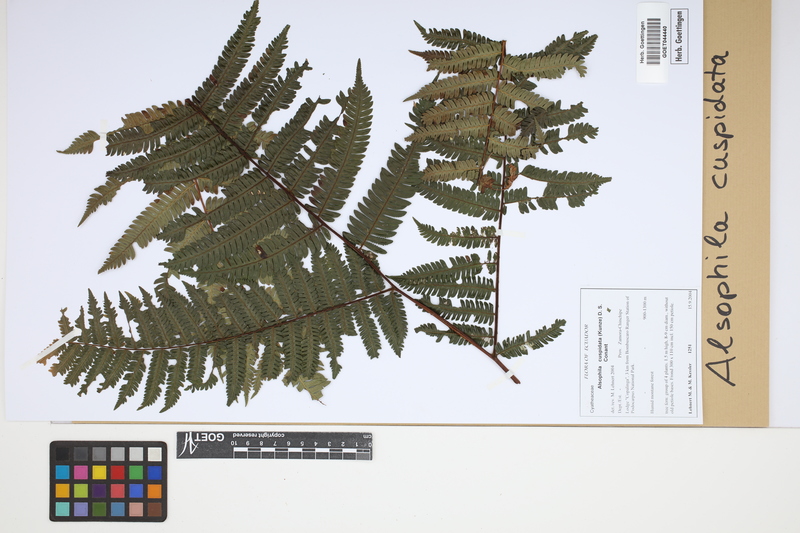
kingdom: Plantae
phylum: Tracheophyta
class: Polypodiopsida
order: Cyatheales
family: Cyatheaceae
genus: Alsophila
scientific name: Alsophila cuspidata
